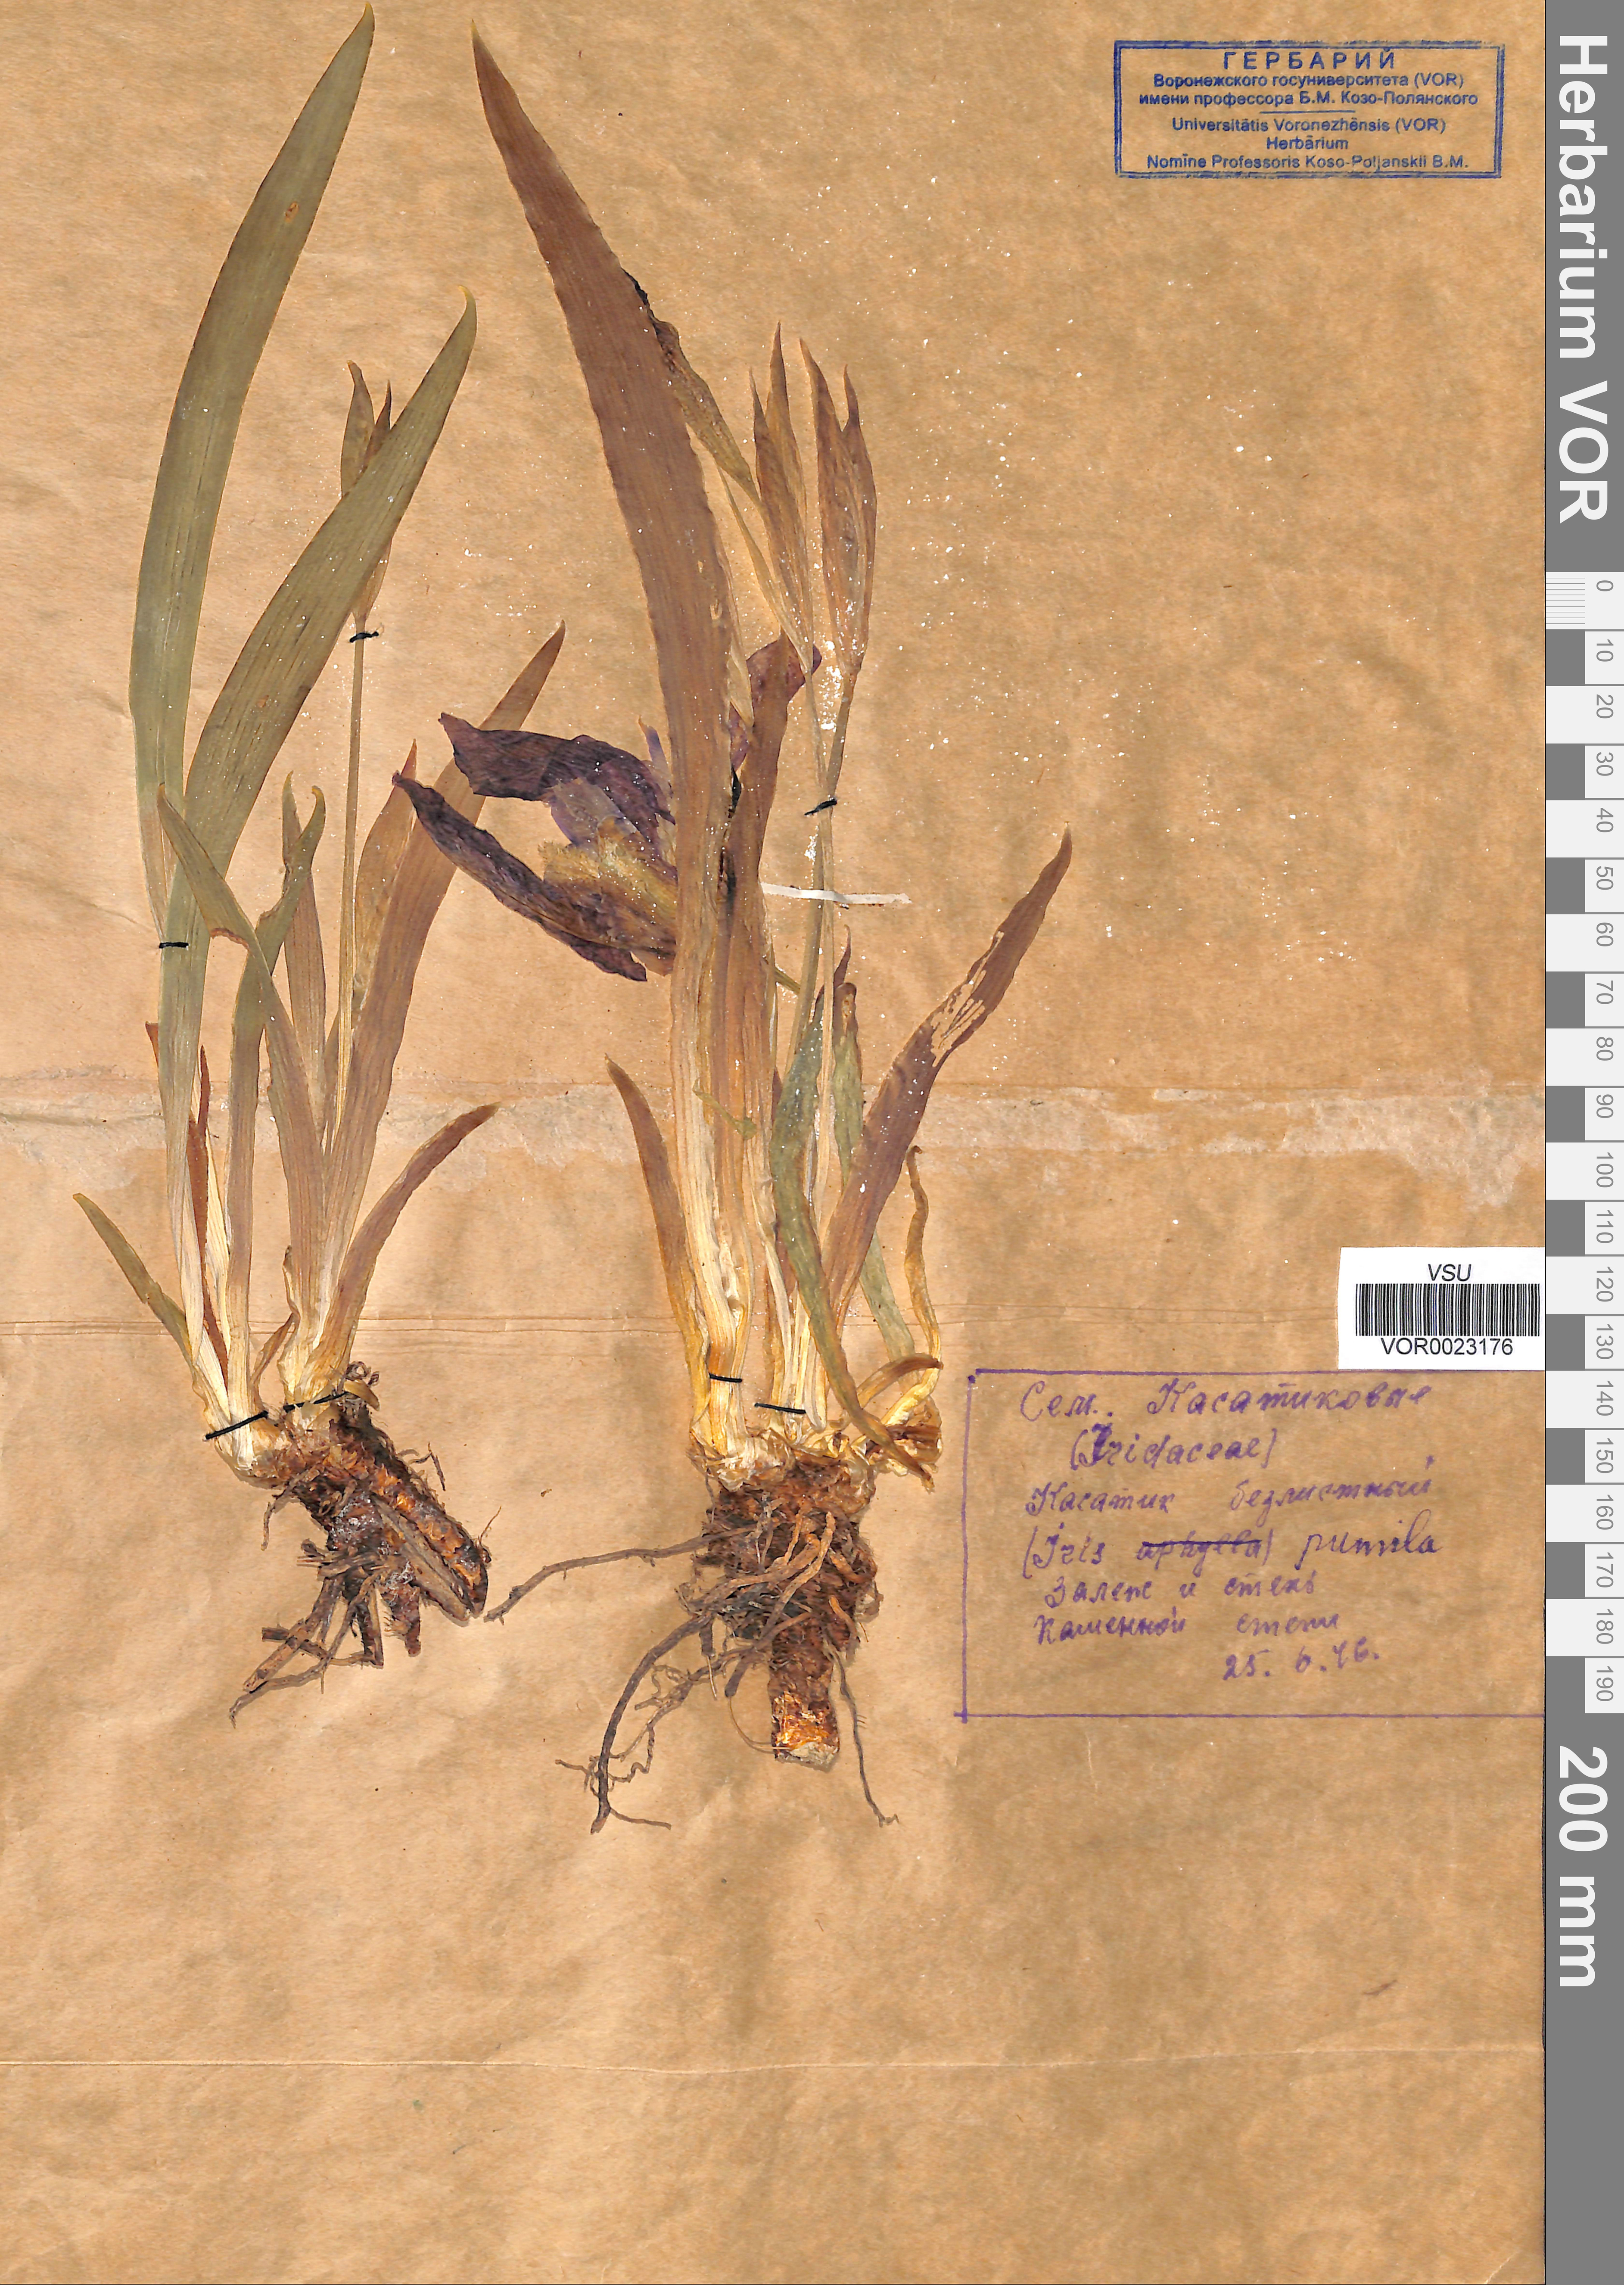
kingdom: Plantae
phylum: Tracheophyta
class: Liliopsida
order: Asparagales
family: Iridaceae
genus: Iris
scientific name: Iris aphylla
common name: Stool iris
